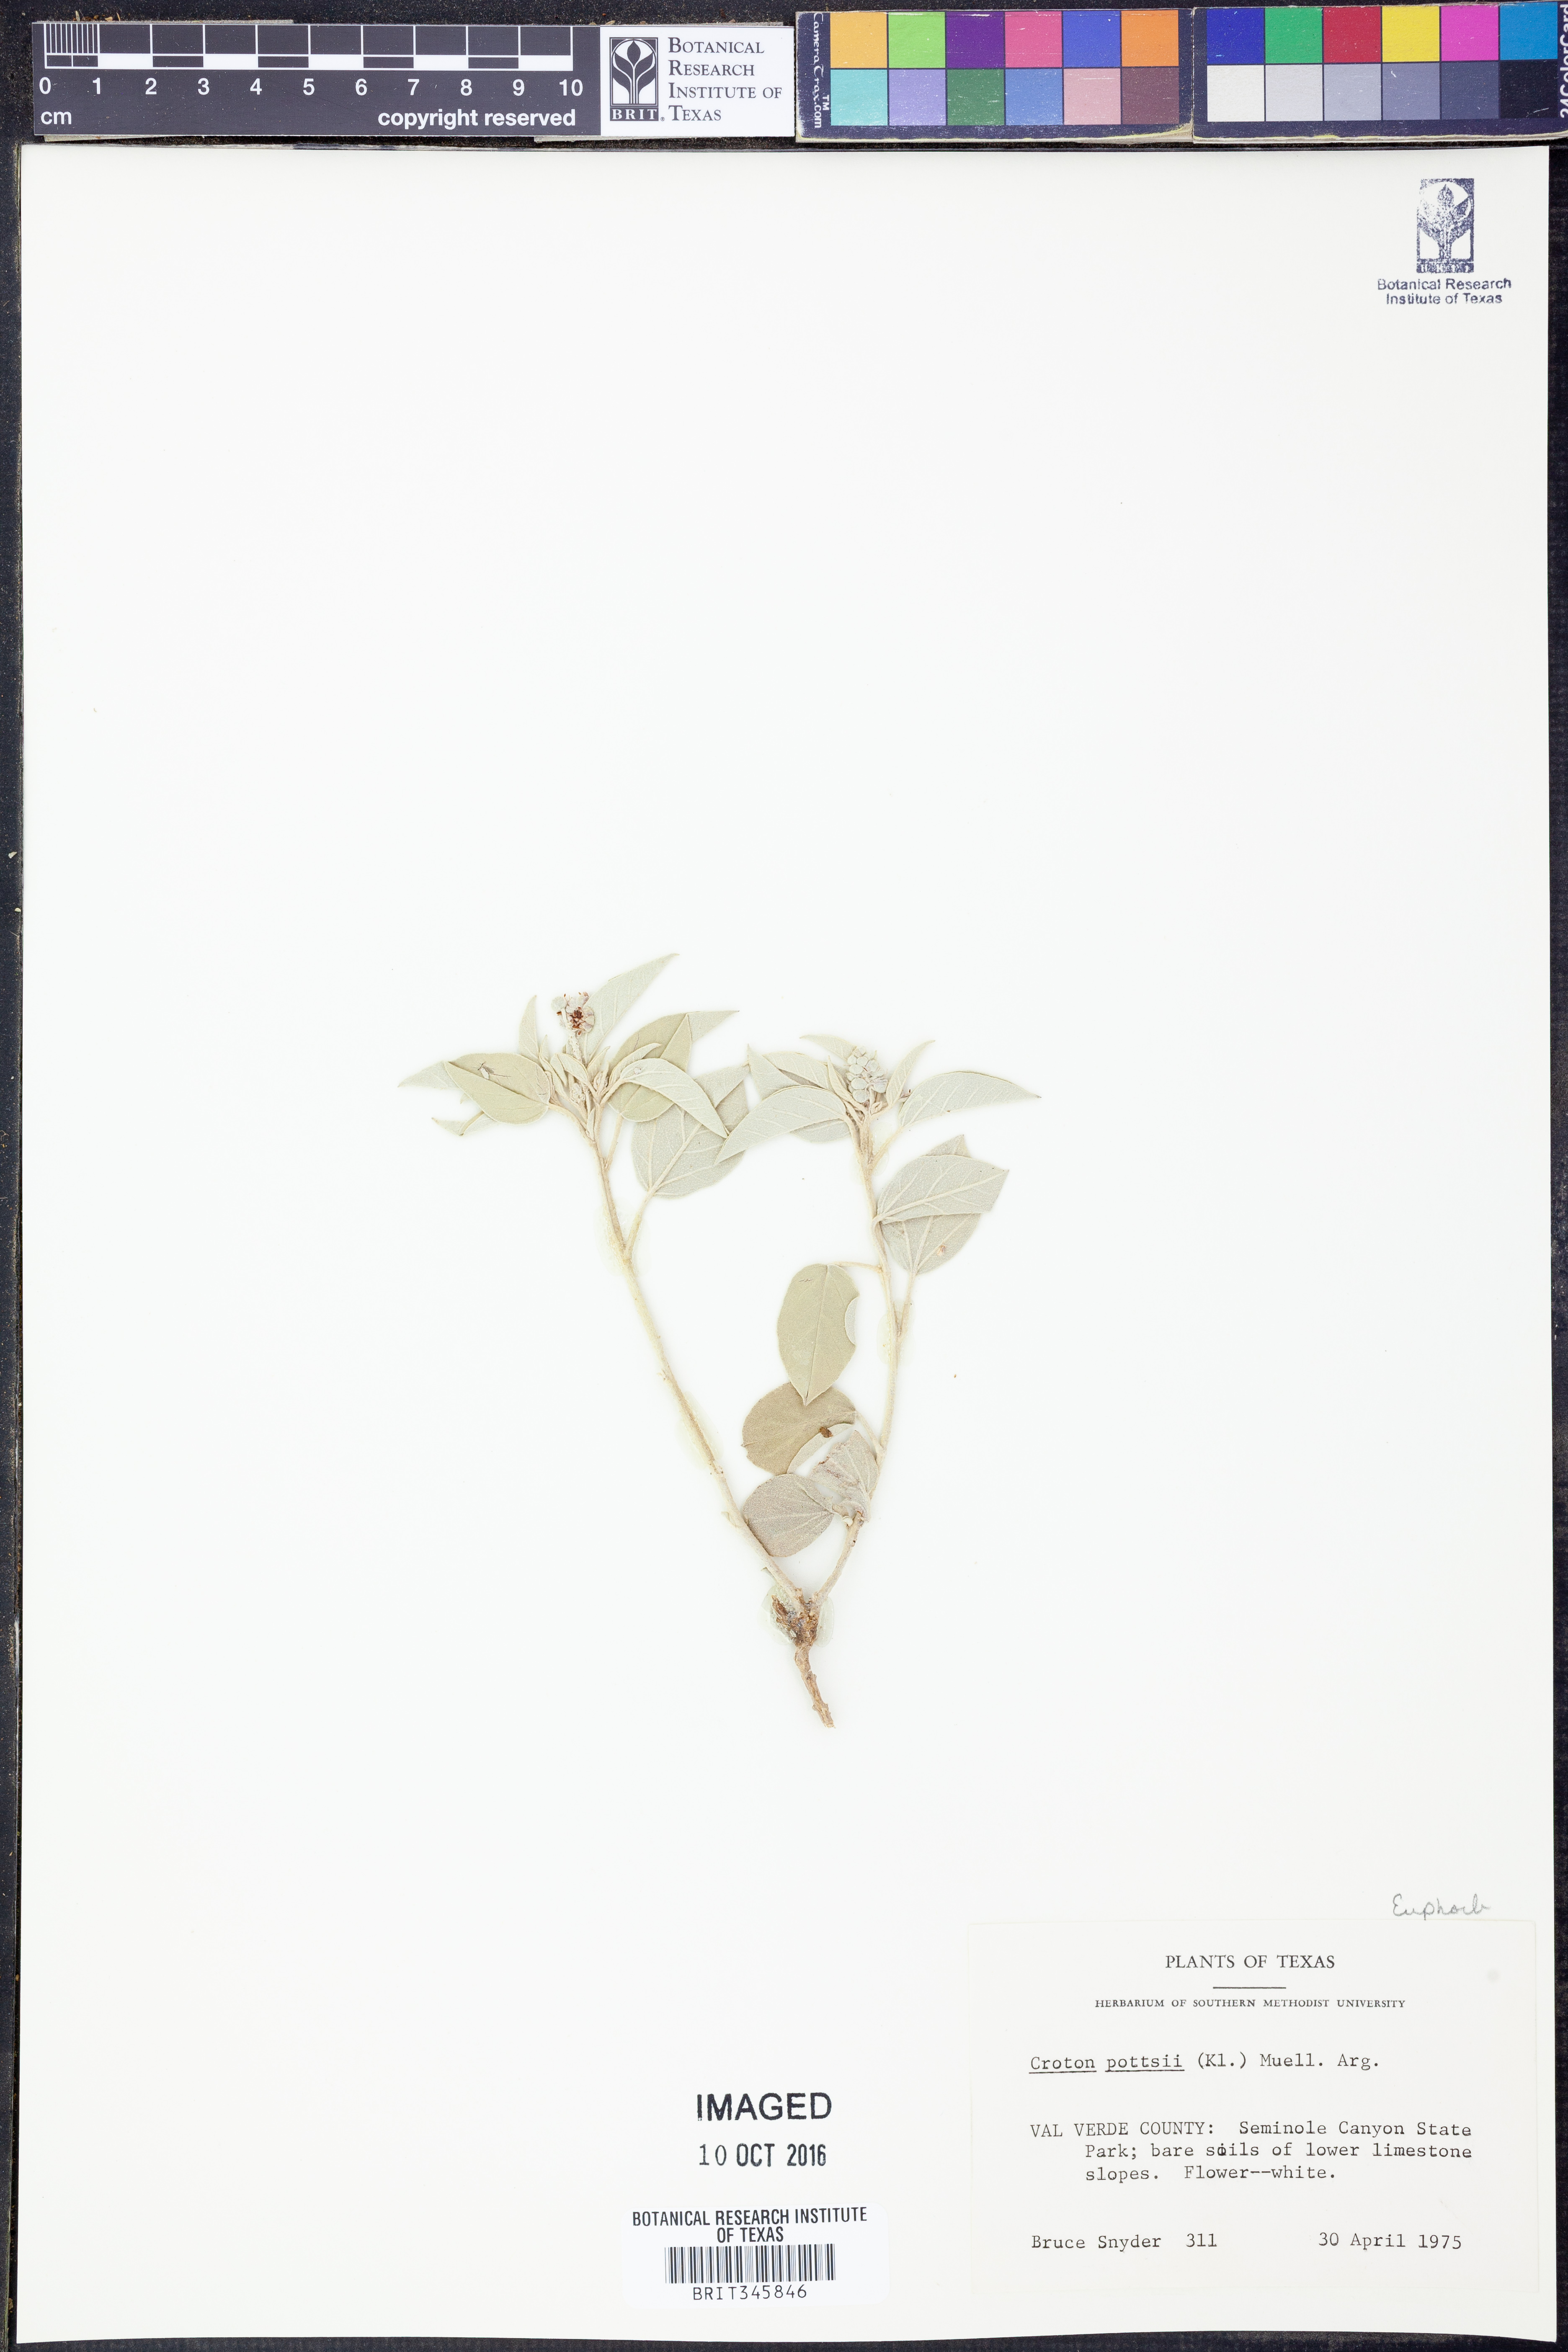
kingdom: Plantae
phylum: Tracheophyta
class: Magnoliopsida
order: Malpighiales
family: Euphorbiaceae
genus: Croton
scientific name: Croton pottsii
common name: Leatherweed
